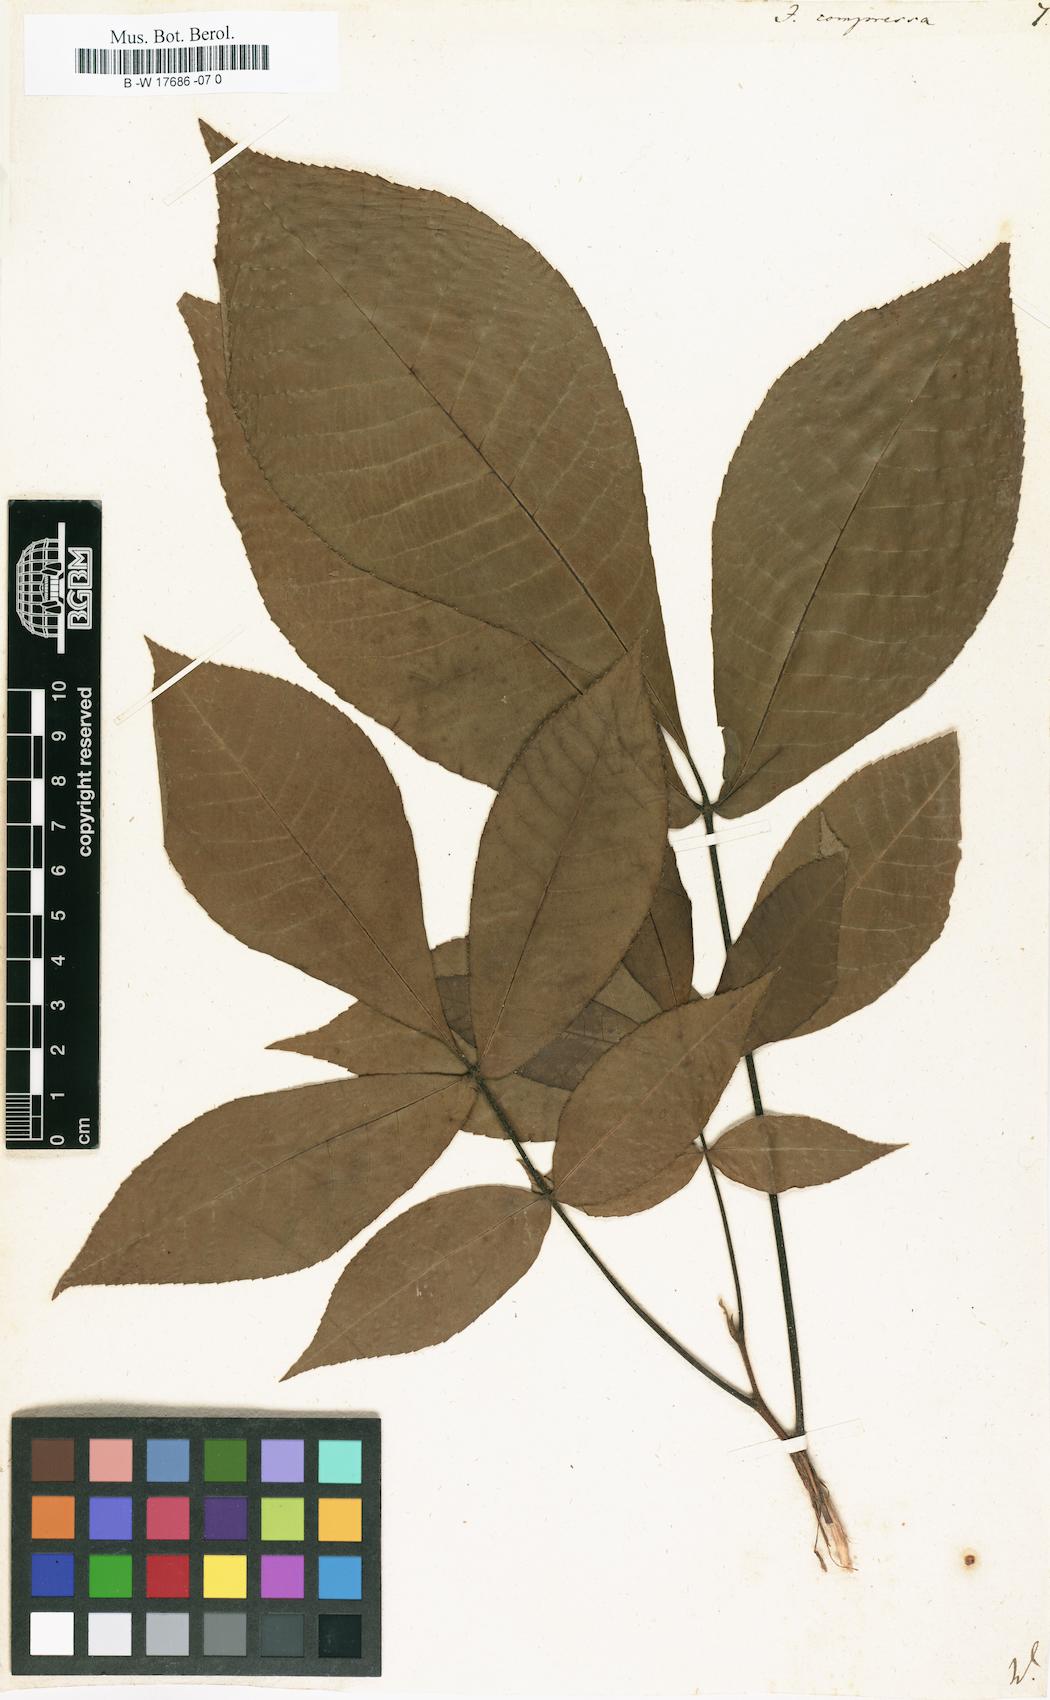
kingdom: Plantae
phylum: Tracheophyta
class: Magnoliopsida
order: Fagales
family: Juglandaceae
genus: Carya
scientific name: Carya cordiformis
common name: Bitternut hickory
